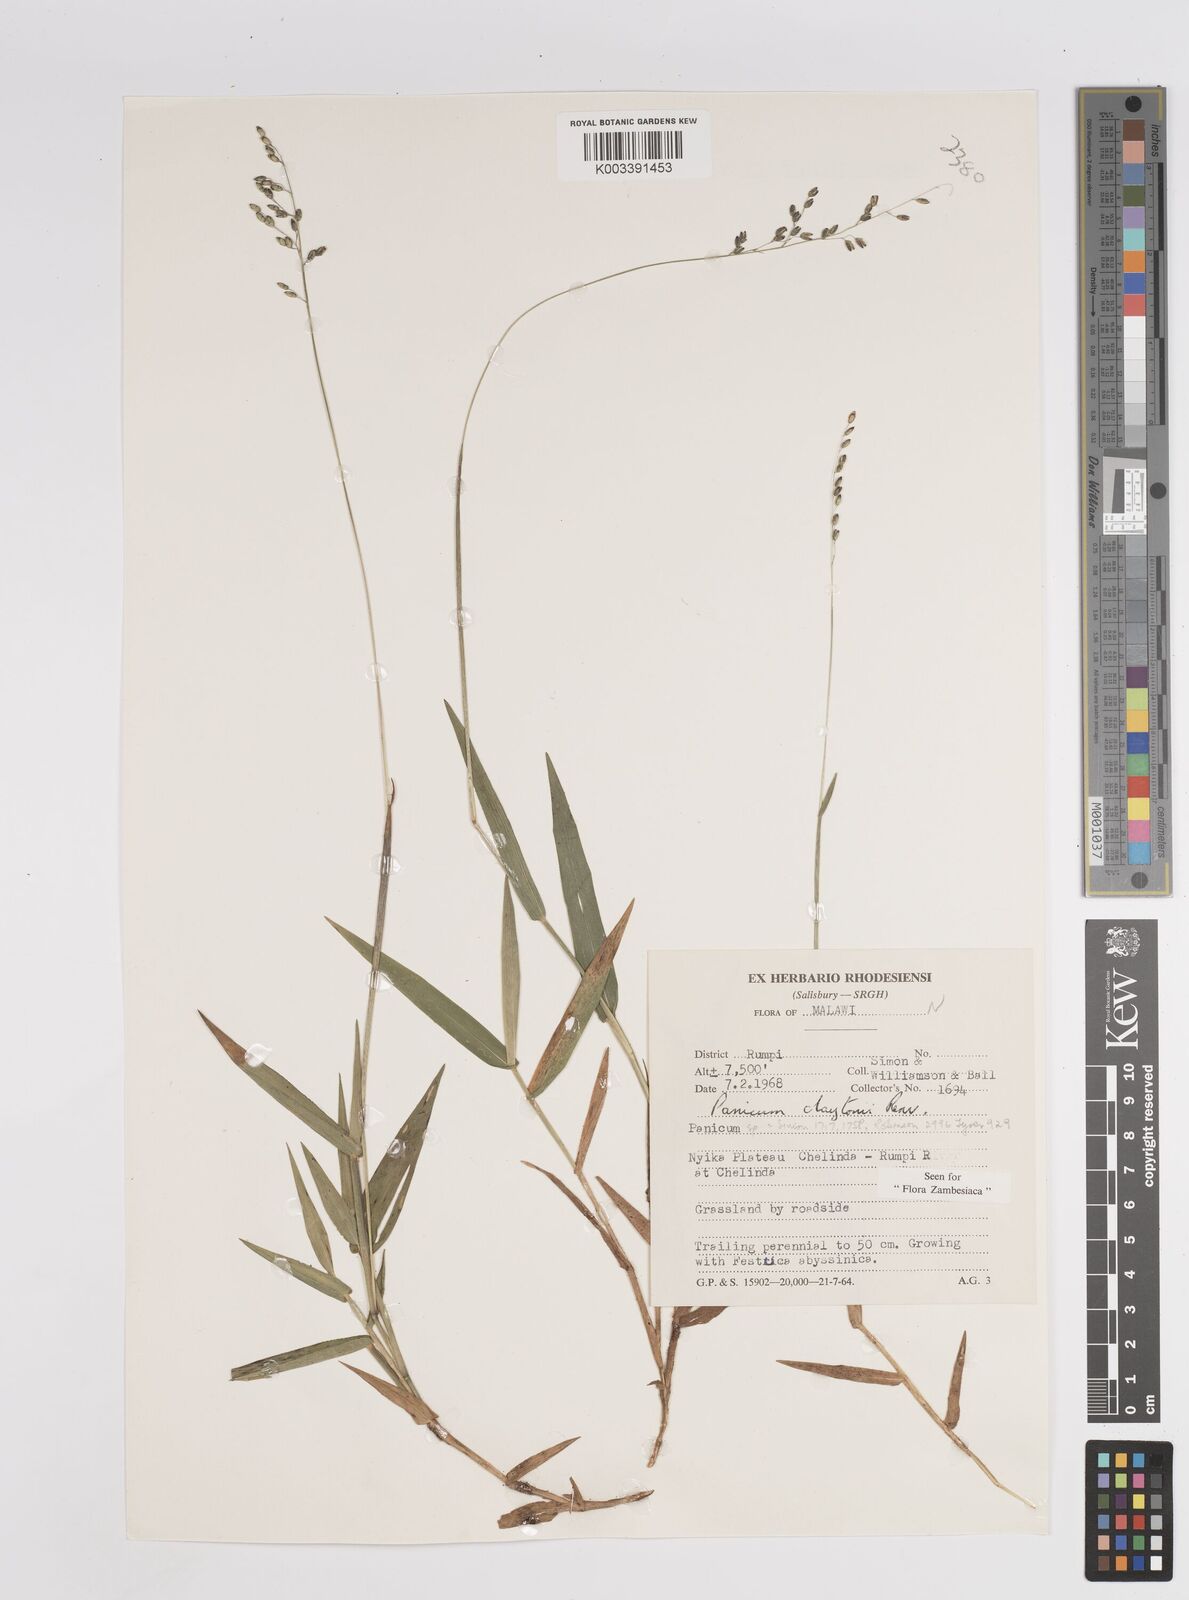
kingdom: Plantae
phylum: Tracheophyta
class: Liliopsida
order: Poales
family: Poaceae
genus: Adenochloa
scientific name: Adenochloa claytonii
